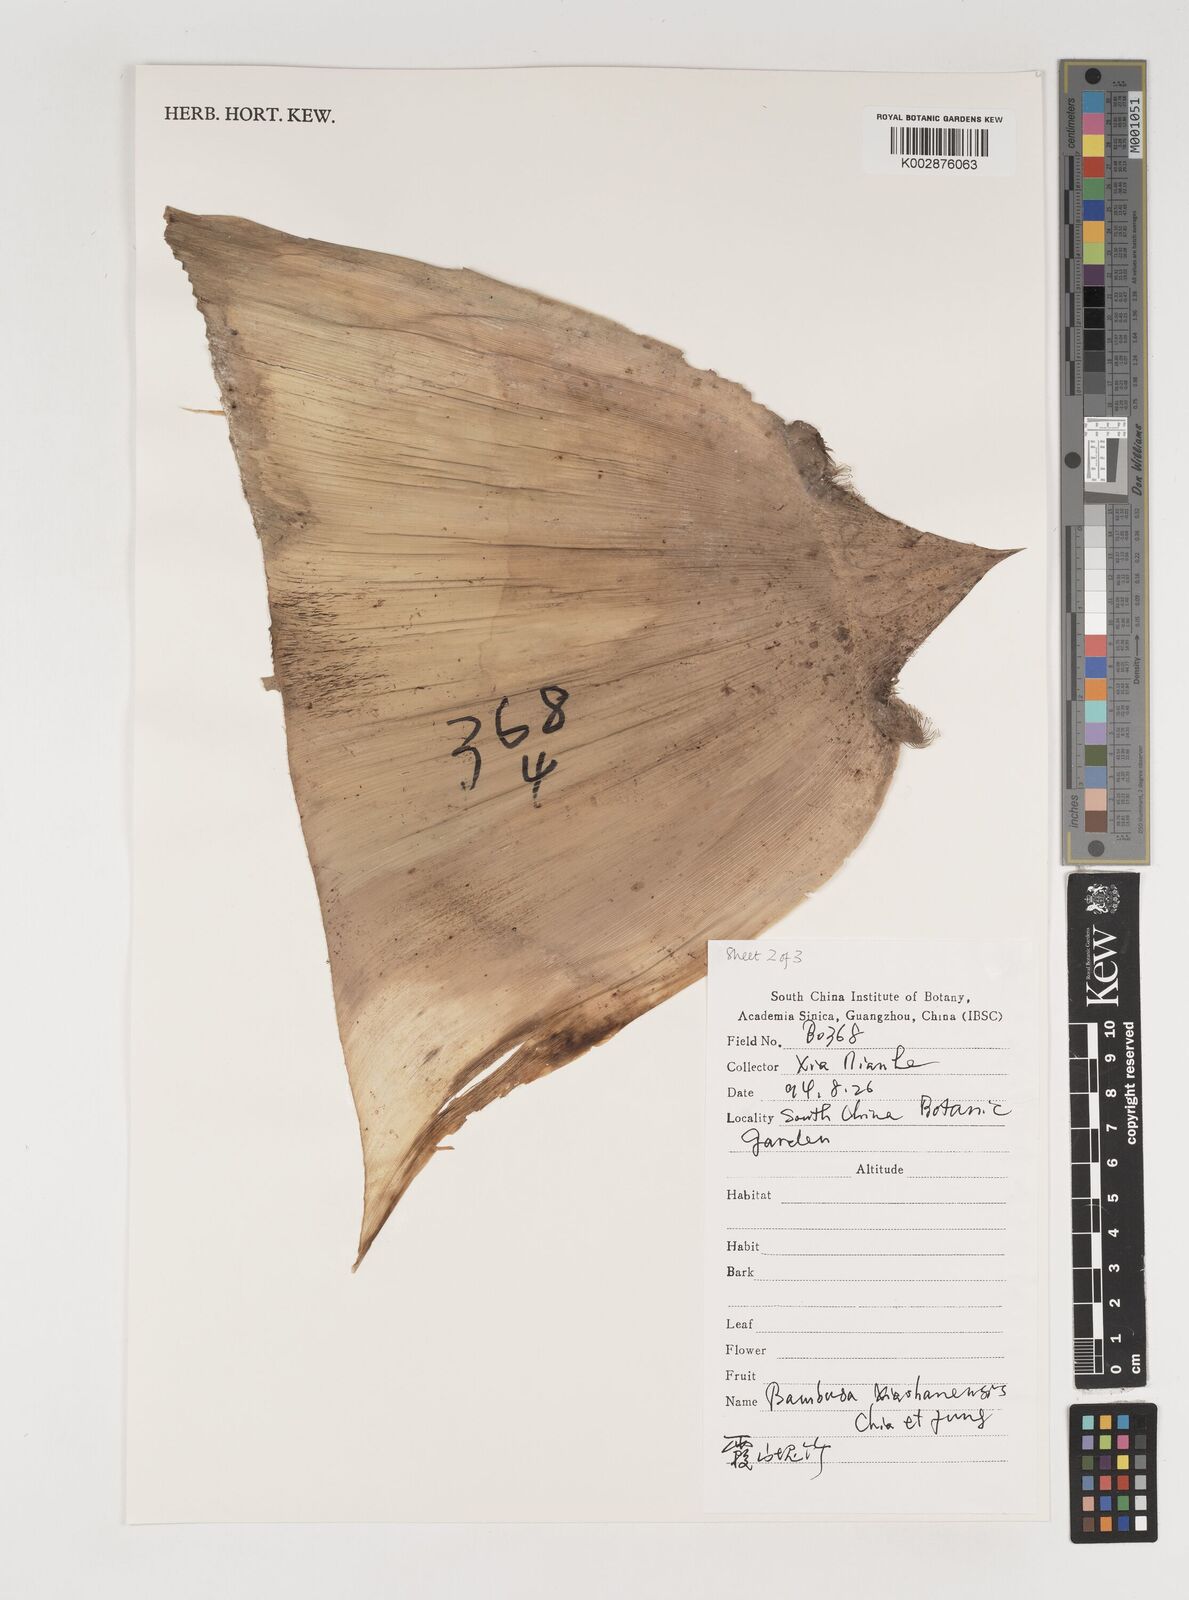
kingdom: Plantae
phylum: Tracheophyta
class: Liliopsida
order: Poales
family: Poaceae
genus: Bambusa
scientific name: Bambusa xiashanensis
